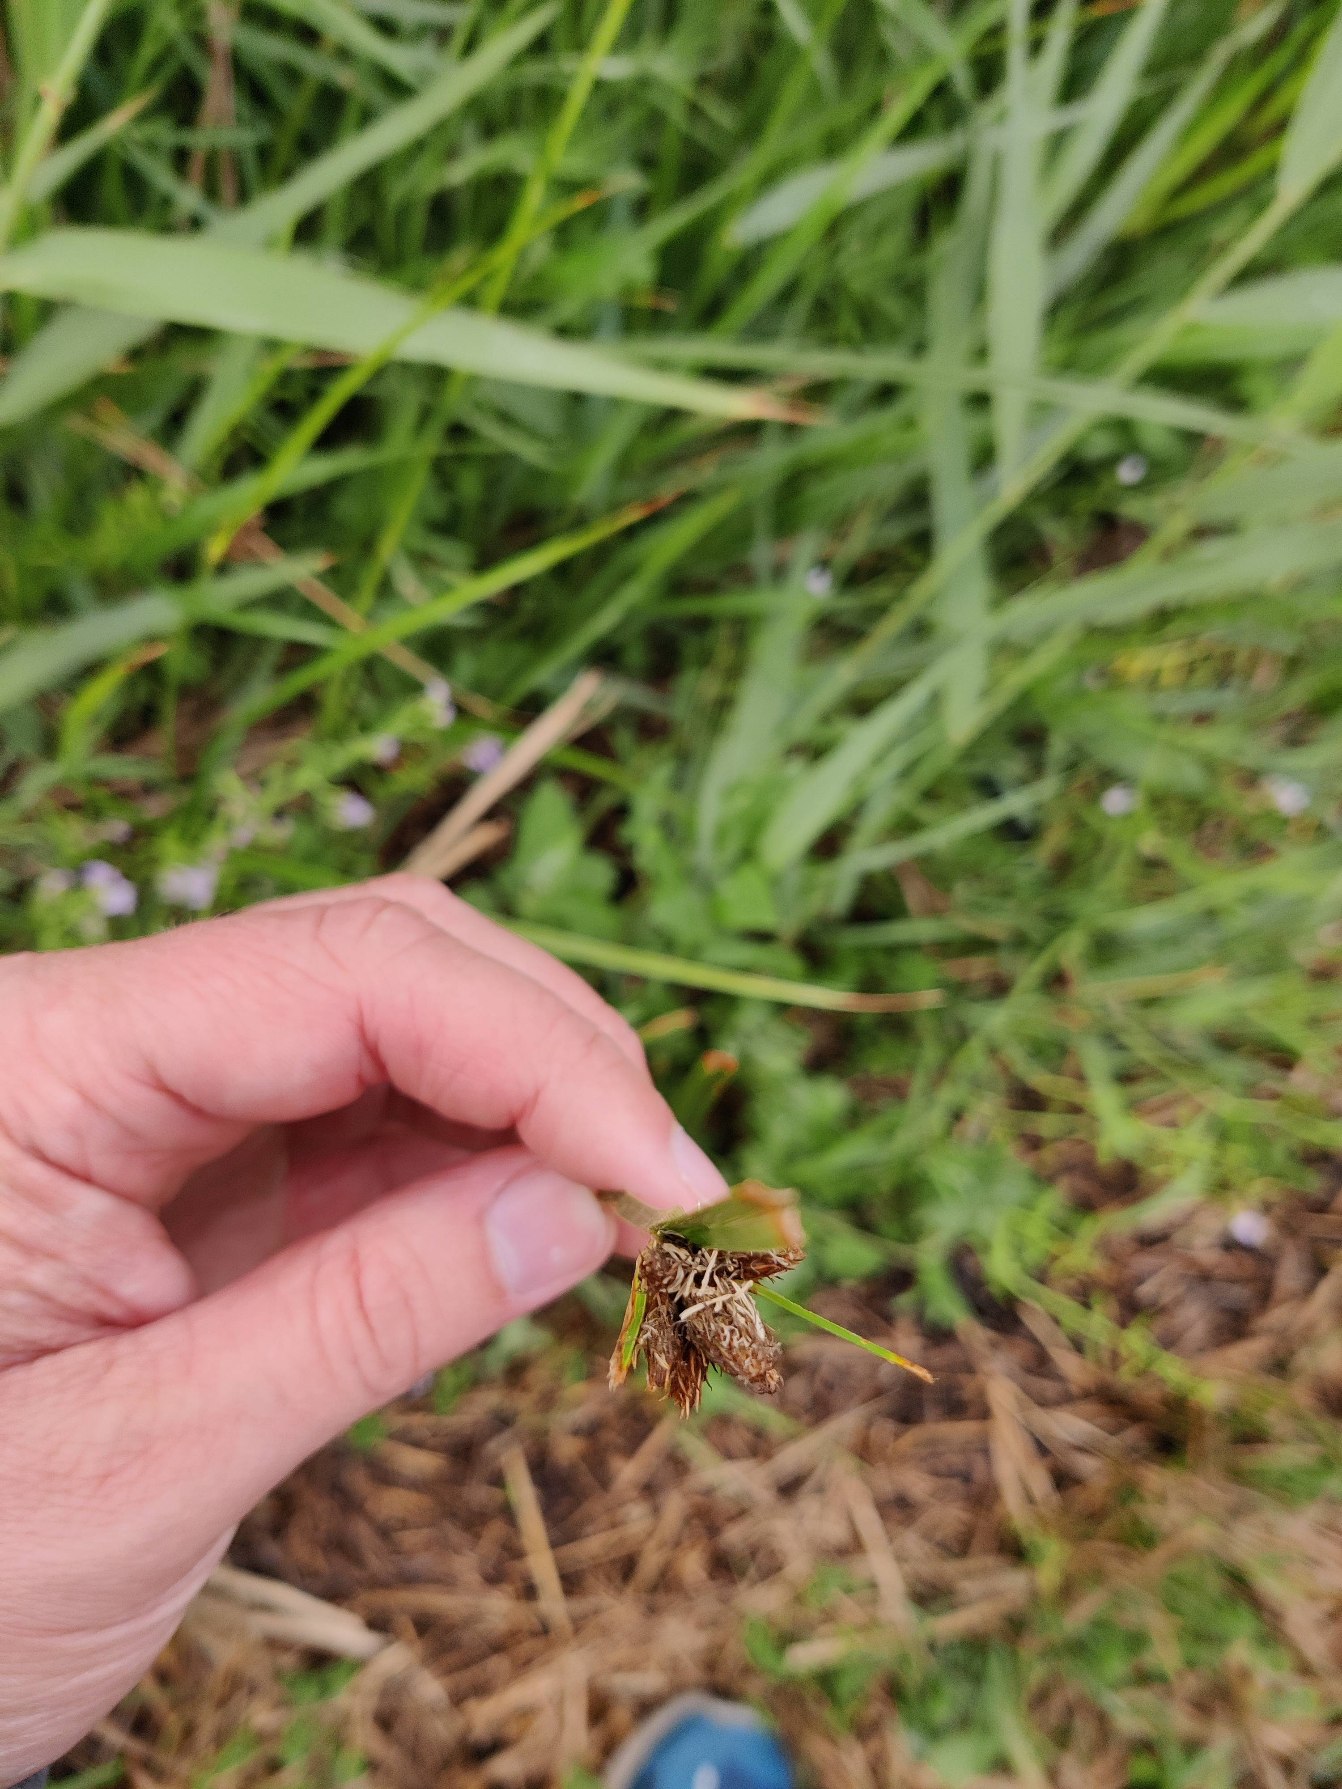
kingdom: Plantae
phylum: Tracheophyta
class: Liliopsida
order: Poales
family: Cyperaceae
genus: Bolboschoenus
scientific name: Bolboschoenus maritimus
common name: Strand-kogleaks
